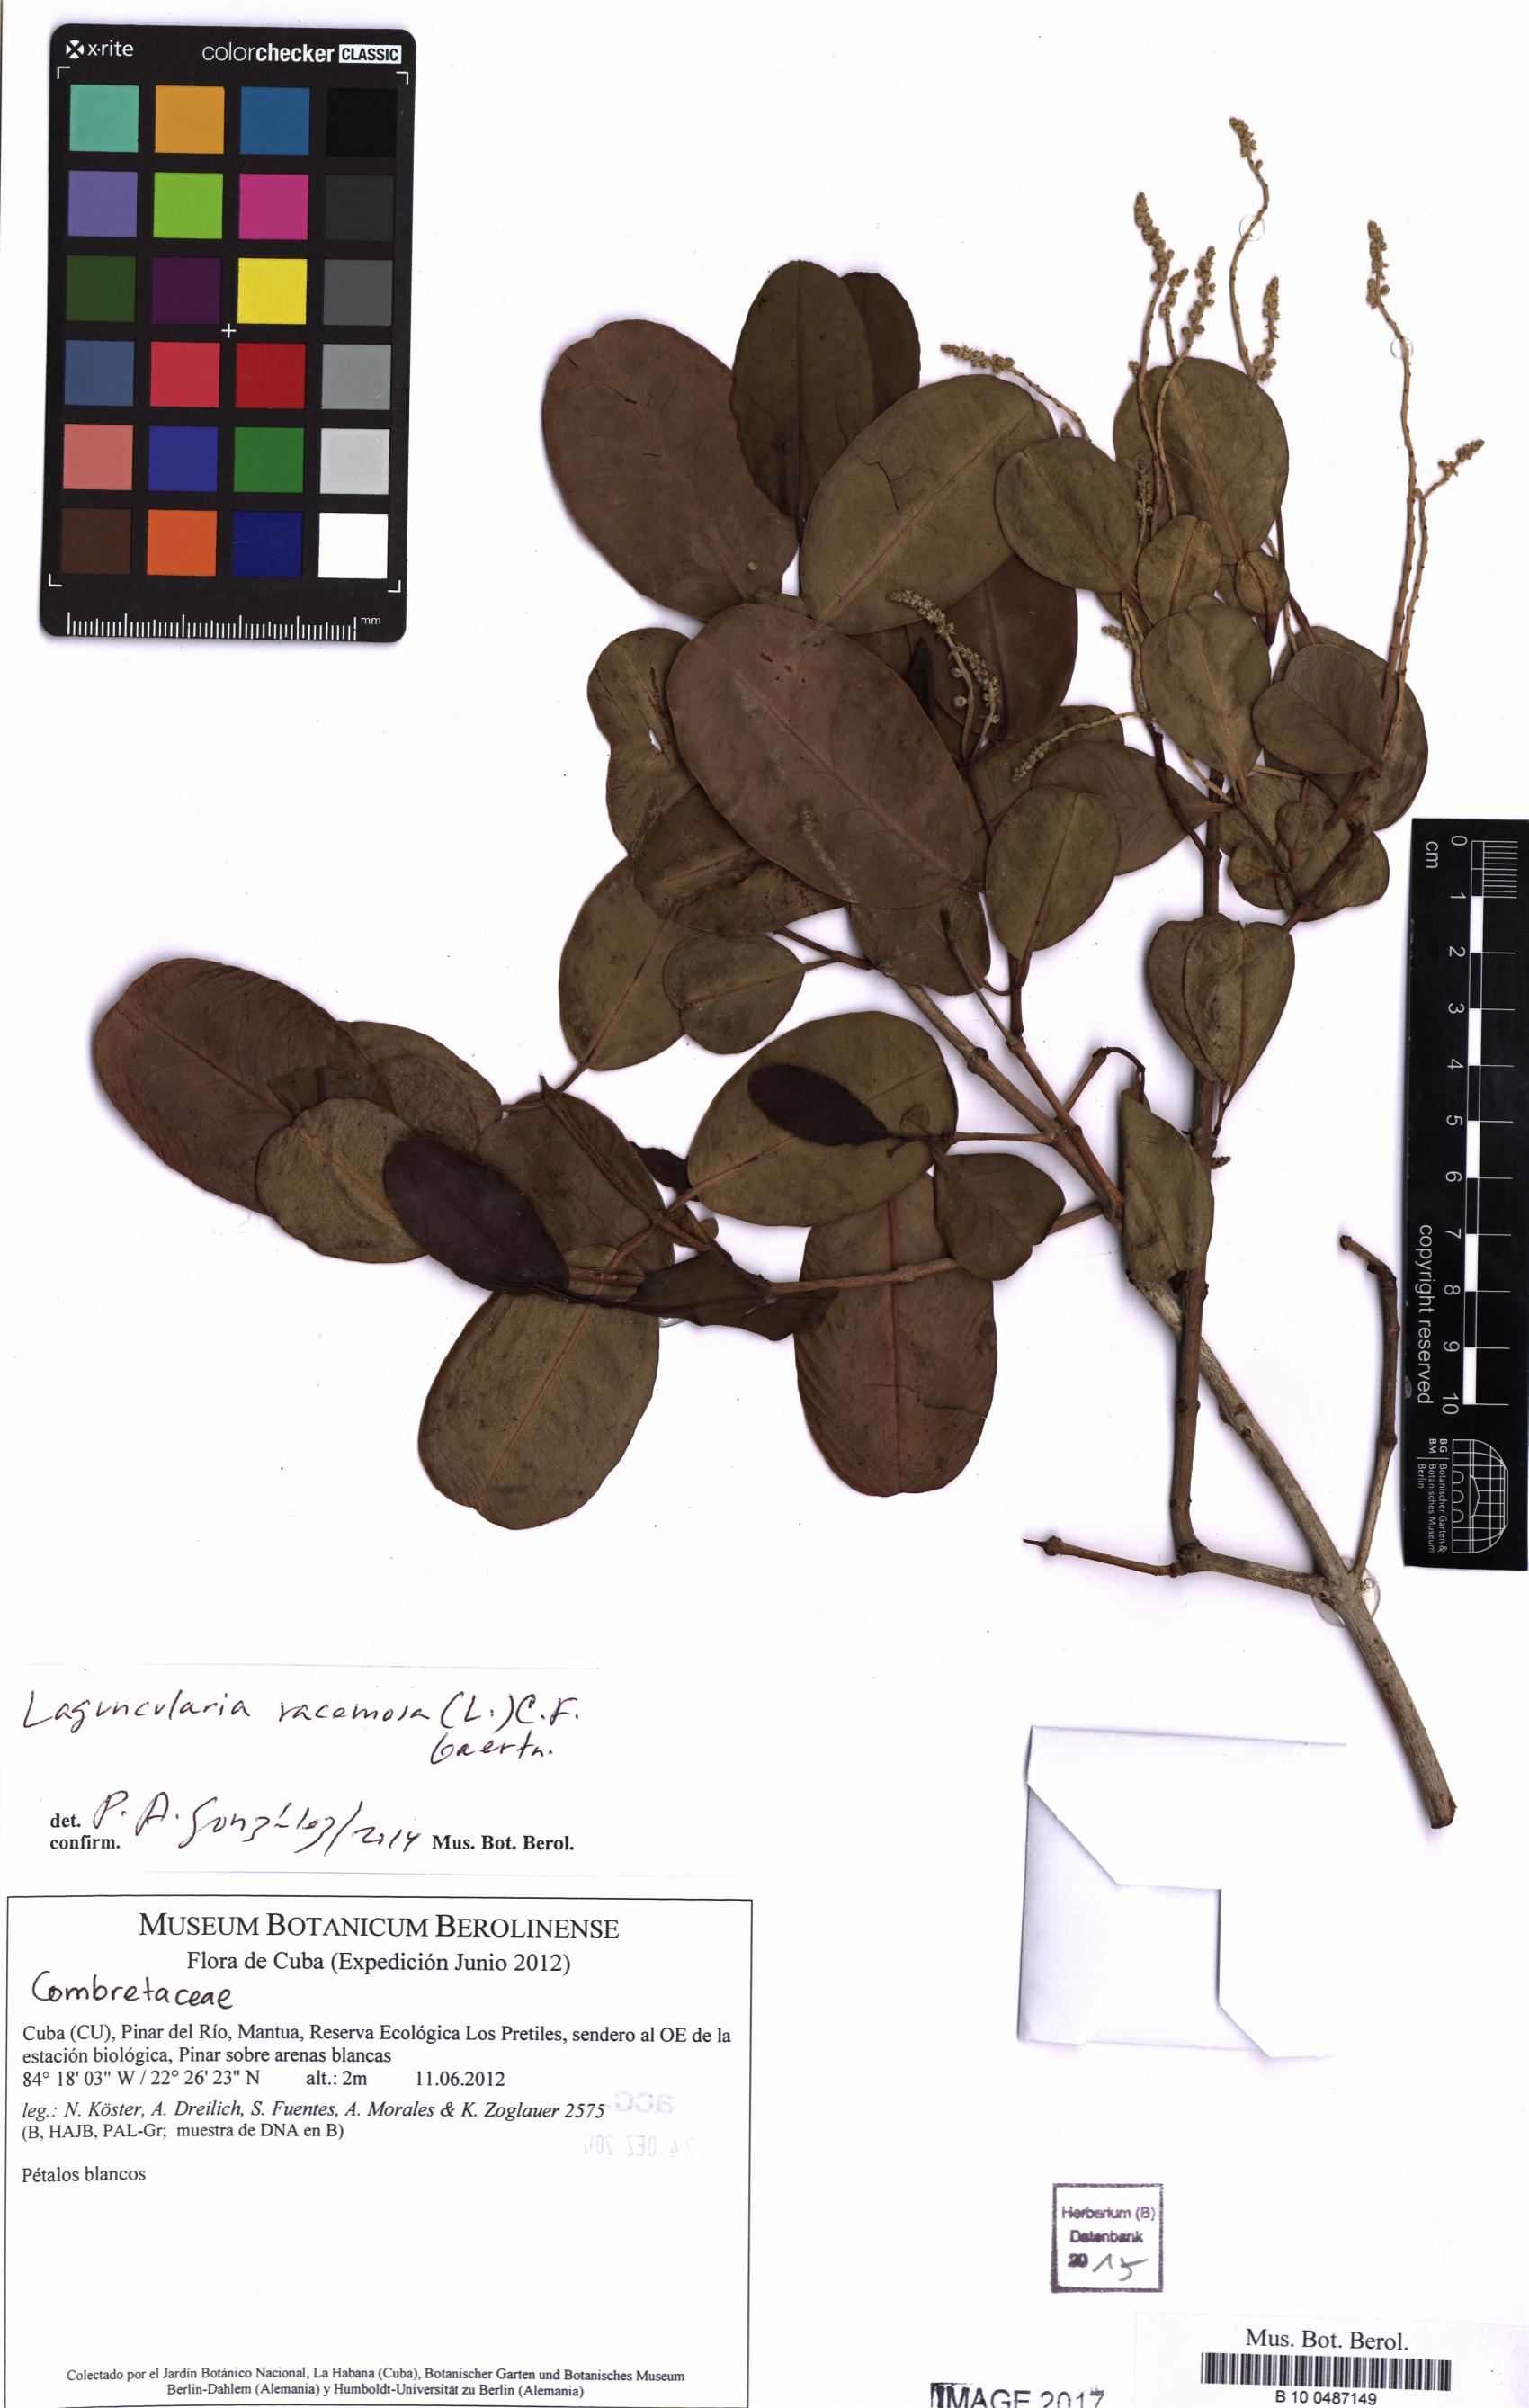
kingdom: Plantae
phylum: Tracheophyta
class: Magnoliopsida
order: Myrtales
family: Combretaceae
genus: Laguncularia
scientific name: Laguncularia racemosa
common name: White mangrove
